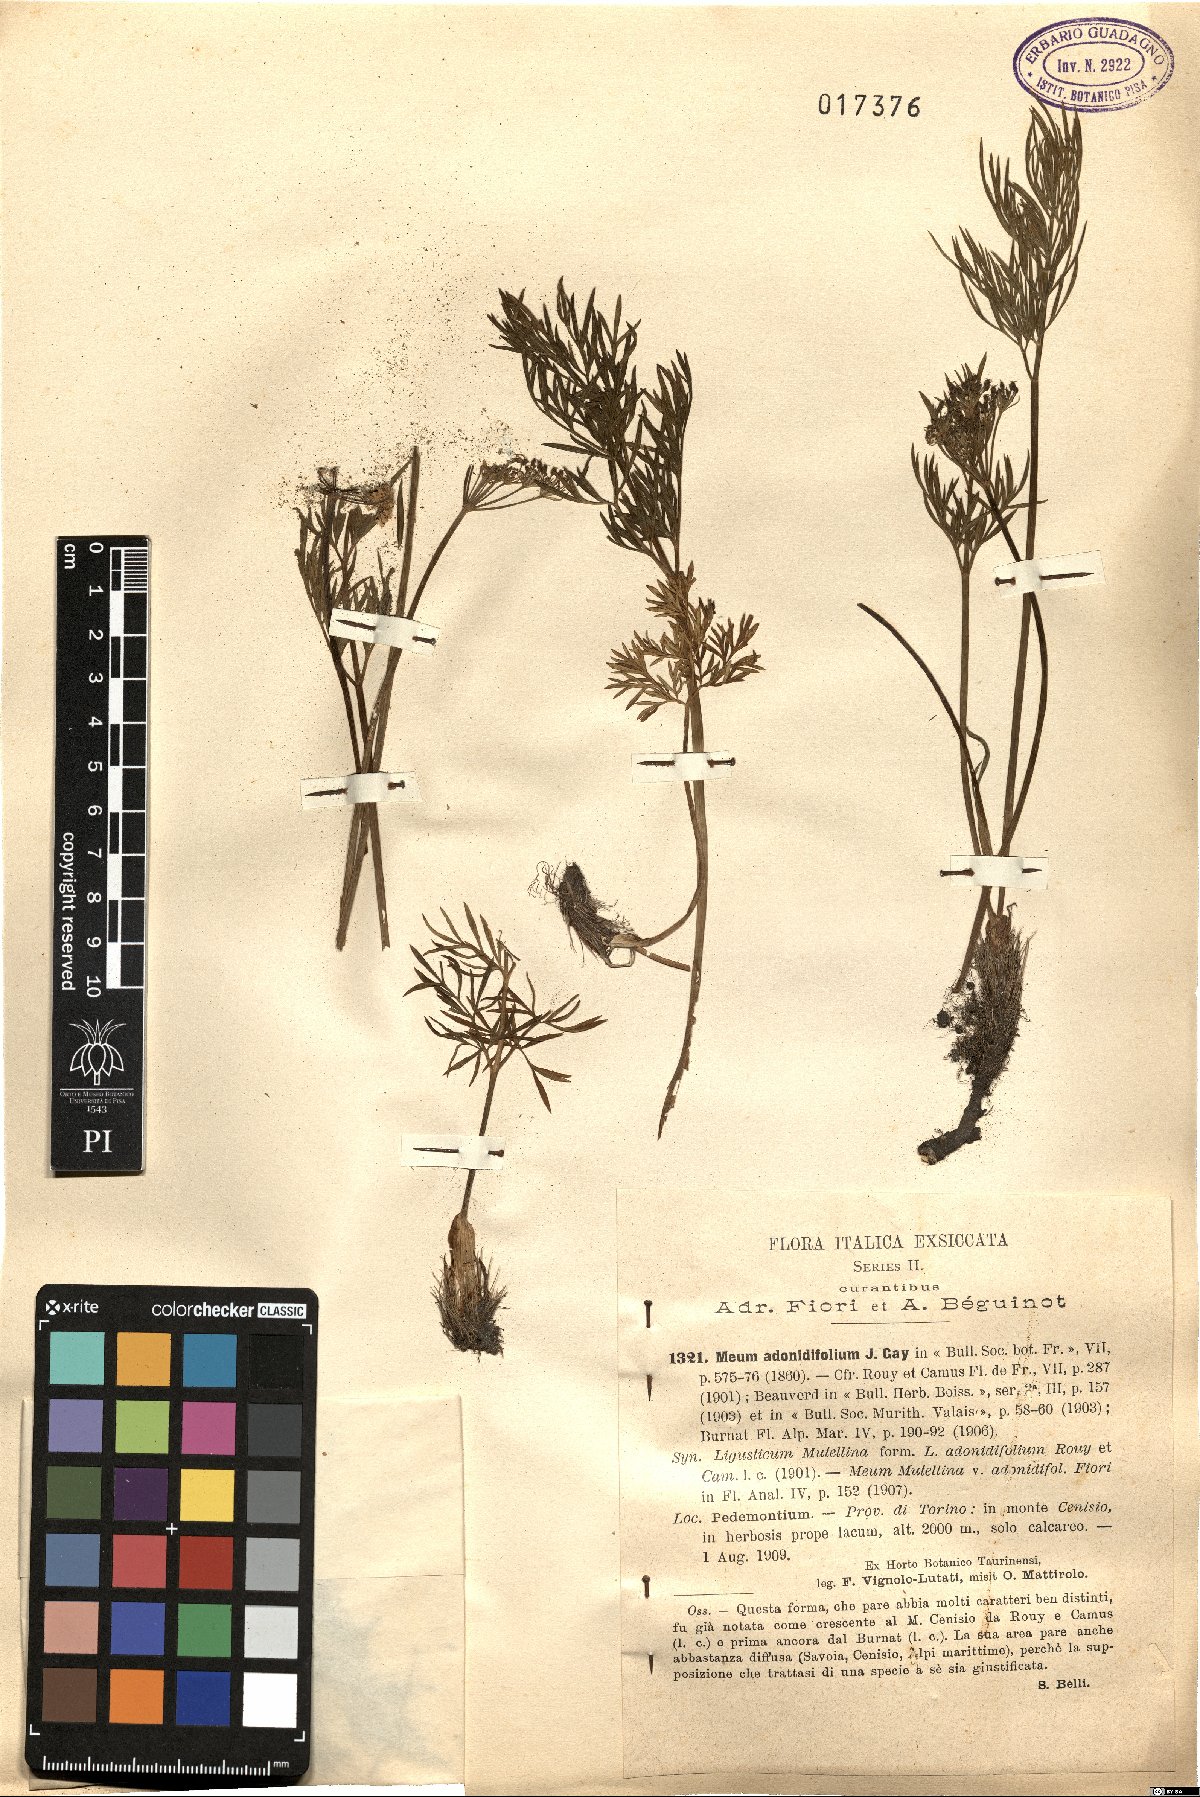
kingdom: Plantae
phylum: Tracheophyta
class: Magnoliopsida
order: Apiales
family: Apiaceae
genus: Mutellina
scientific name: Mutellina adonidifolia
